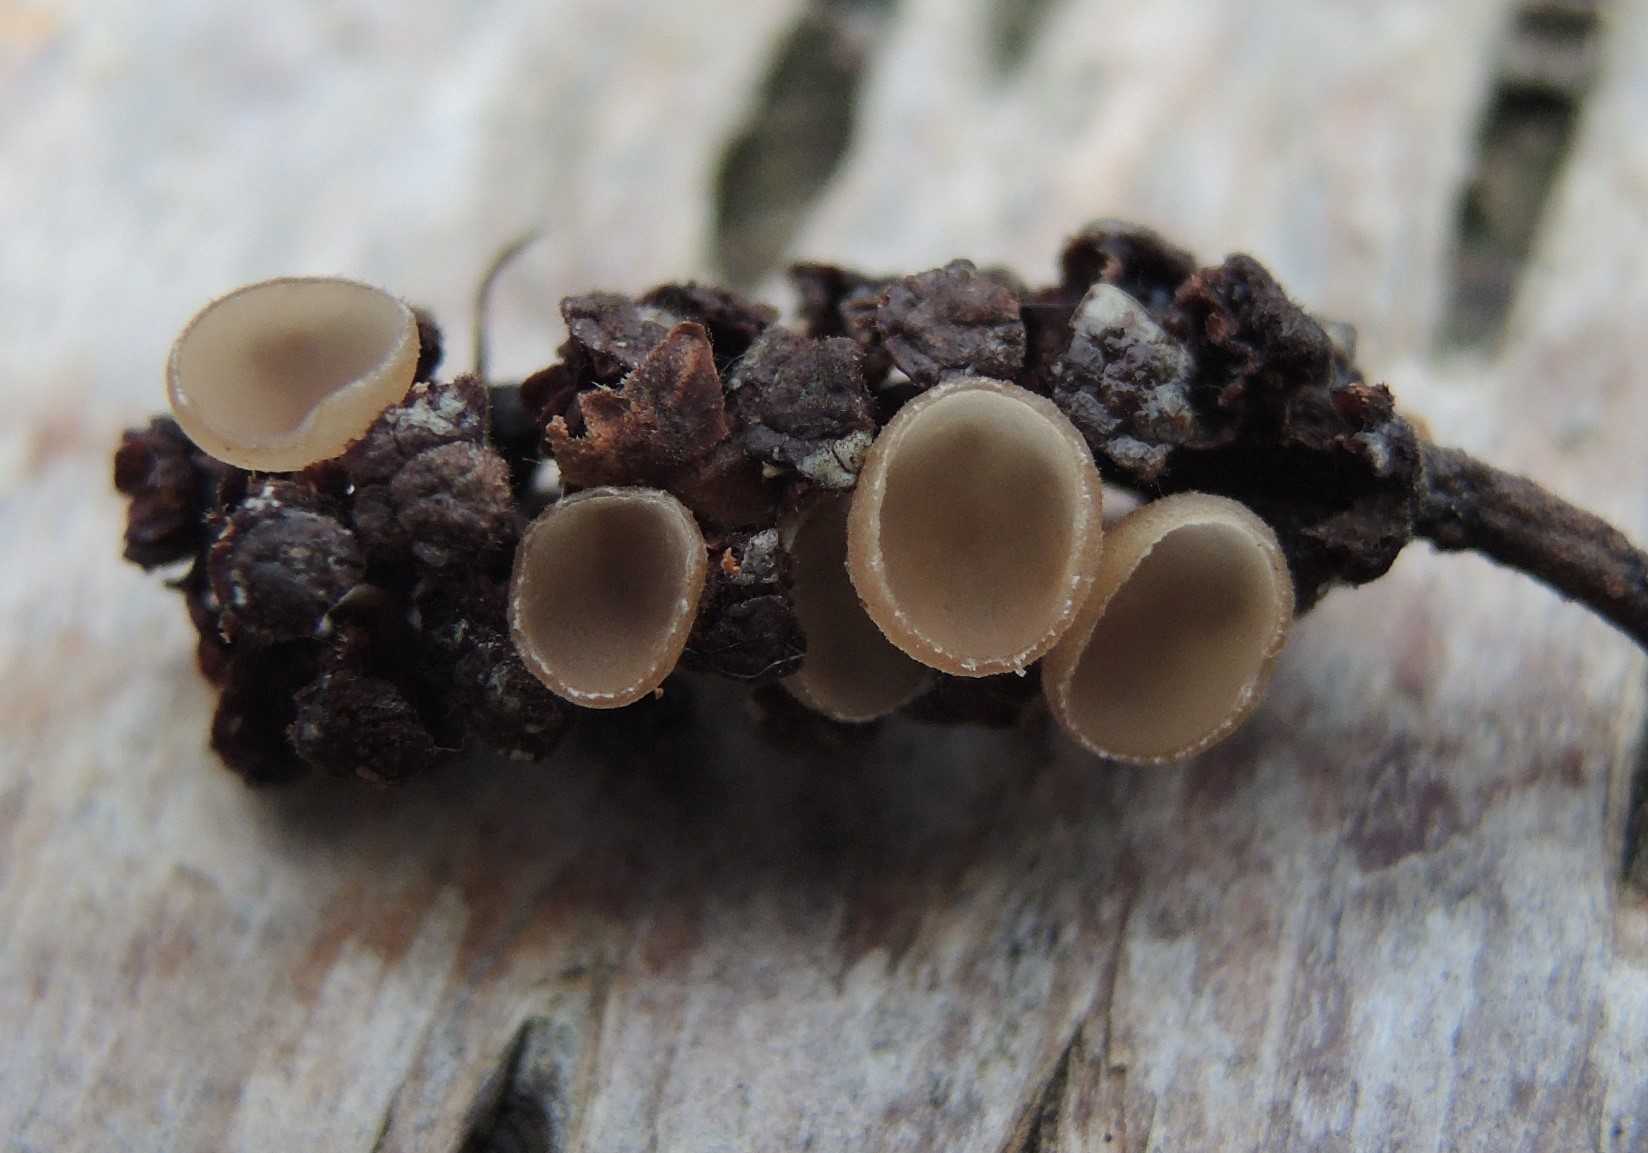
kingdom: Fungi
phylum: Ascomycota
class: Leotiomycetes
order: Helotiales
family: Sclerotiniaceae
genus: Ciboria
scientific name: Ciboria amentacea
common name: ellerakle-knoldskive
